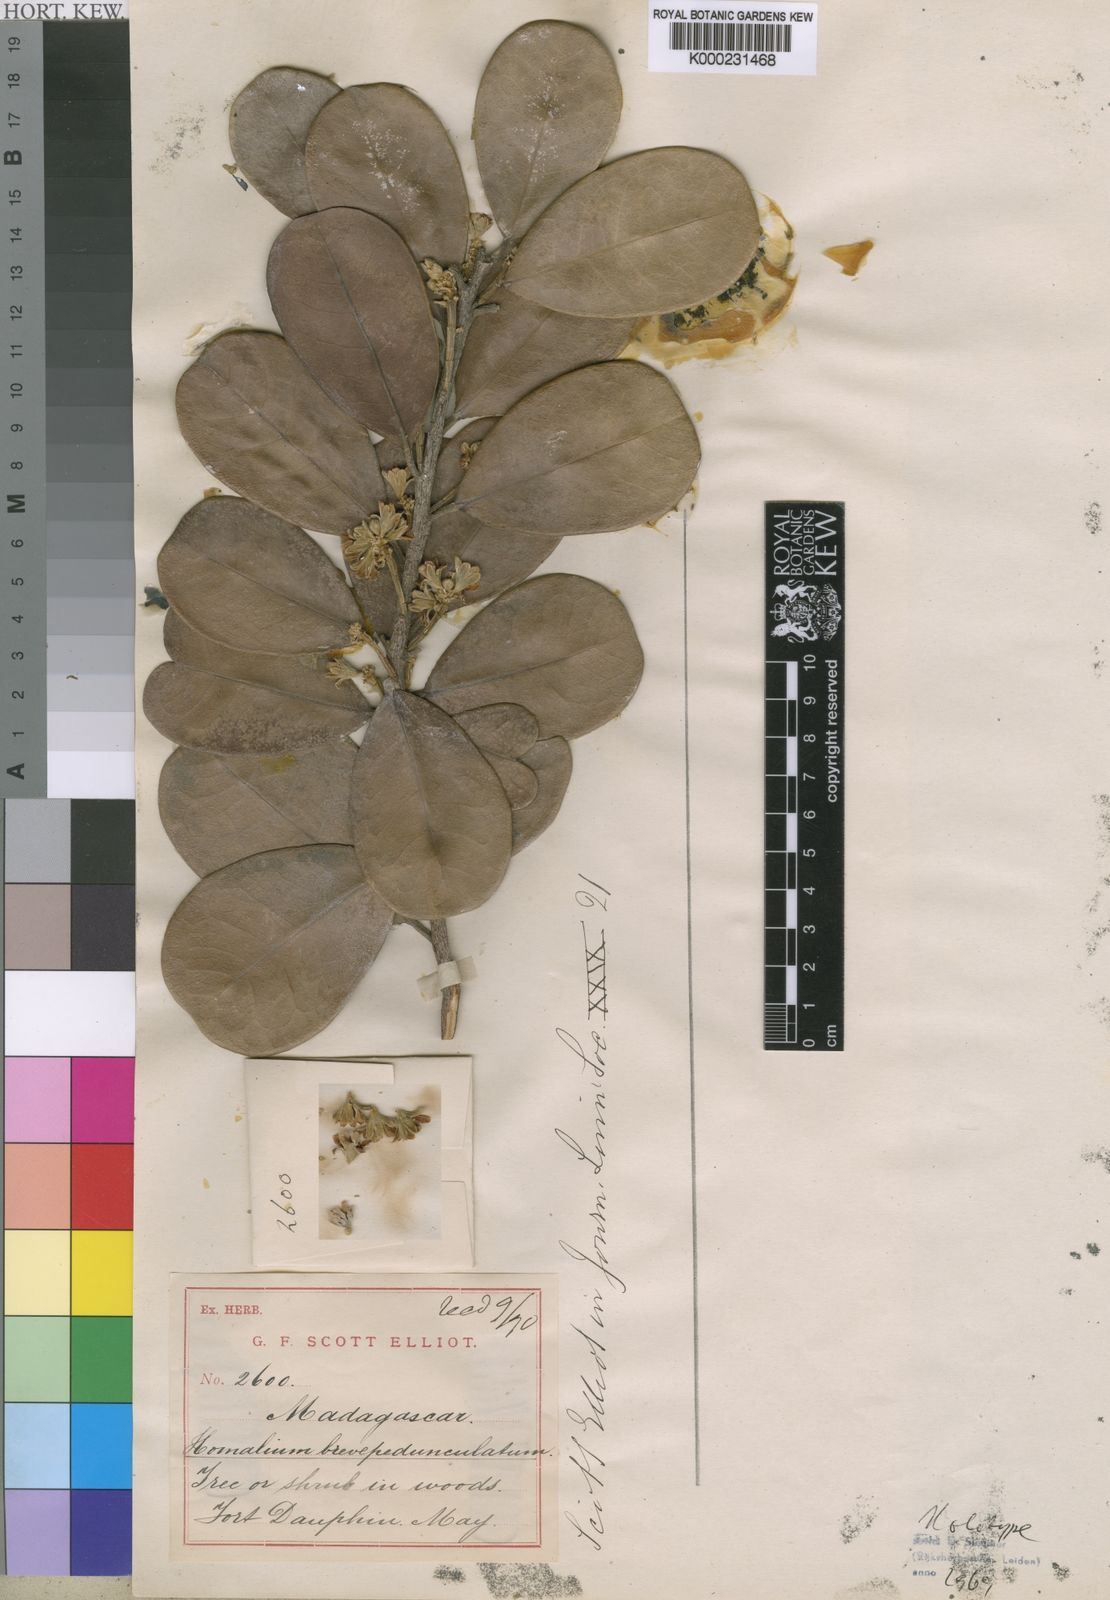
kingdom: Plantae
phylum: Tracheophyta
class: Magnoliopsida
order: Malpighiales
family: Salicaceae
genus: Homalium
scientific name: Homalium brevipedunculatum
